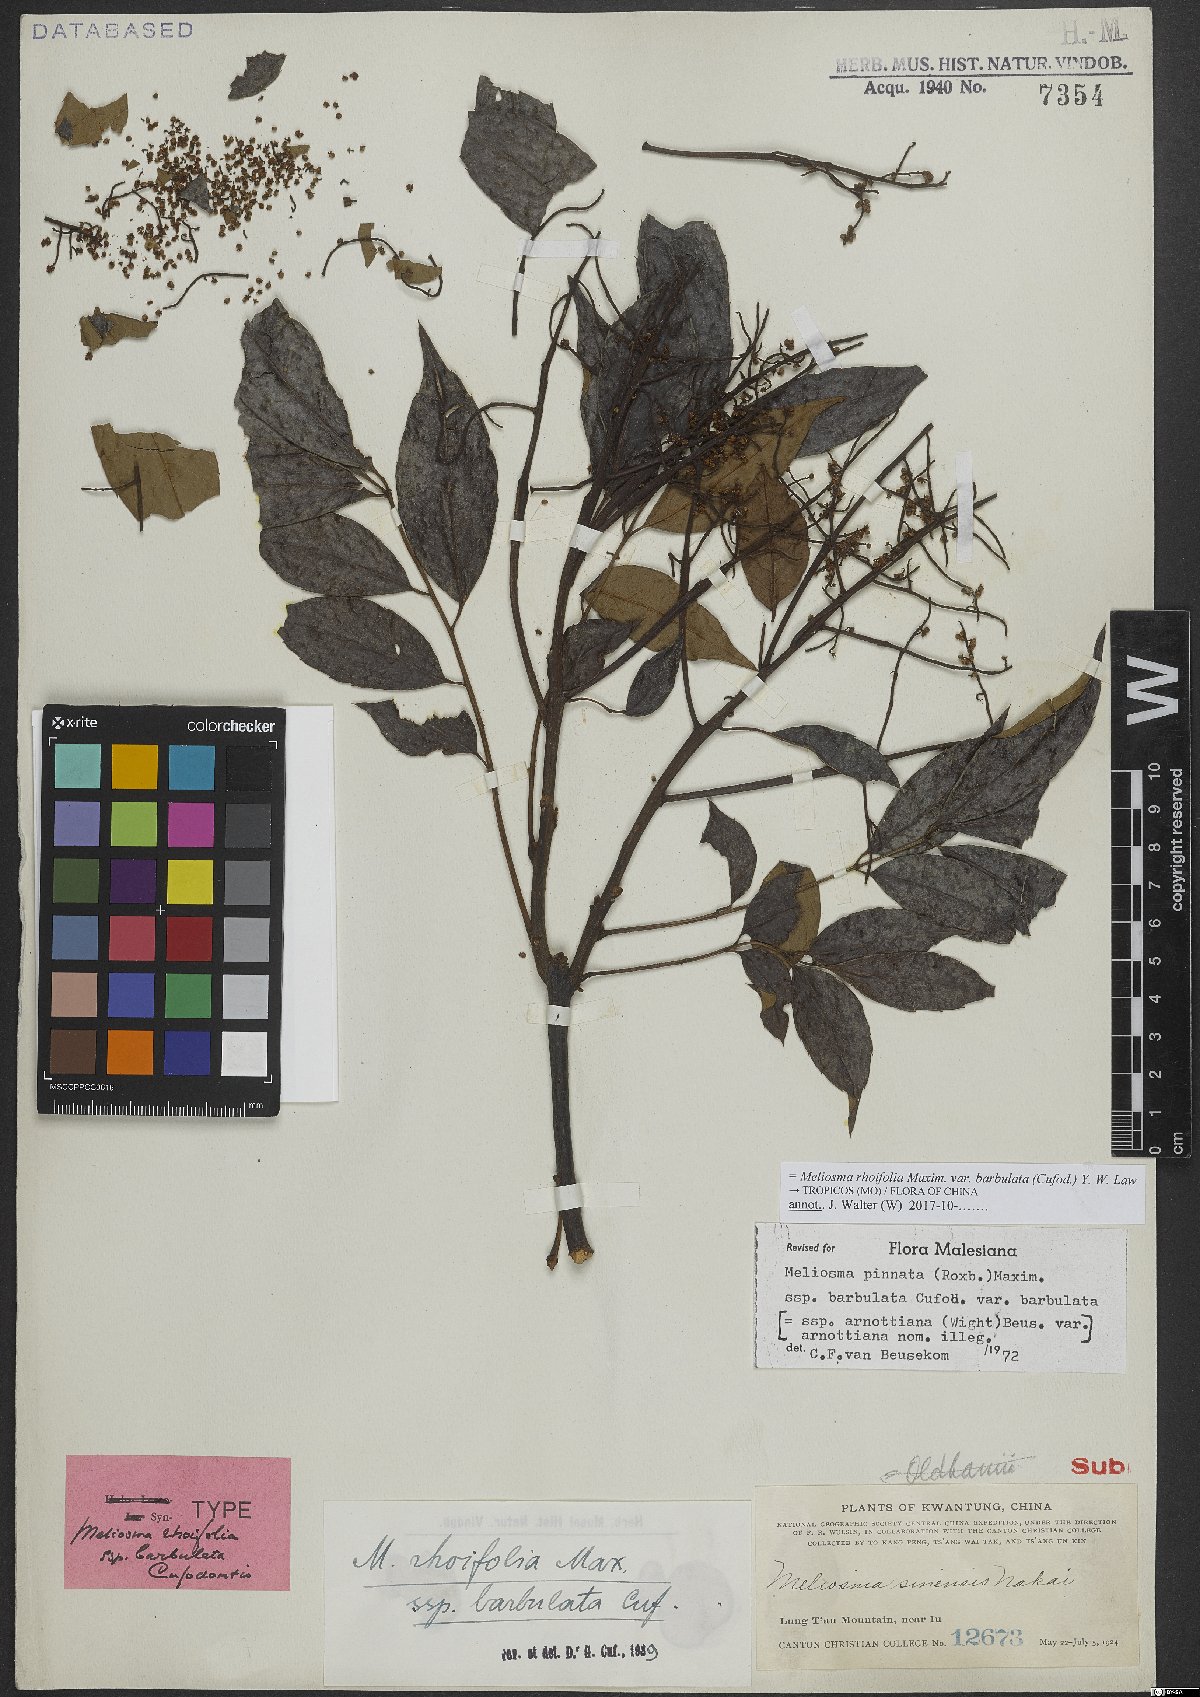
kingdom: Plantae
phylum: Tracheophyta
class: Magnoliopsida
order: Proteales
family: Sabiaceae
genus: Meliosma
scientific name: Meliosma rhoifolia
